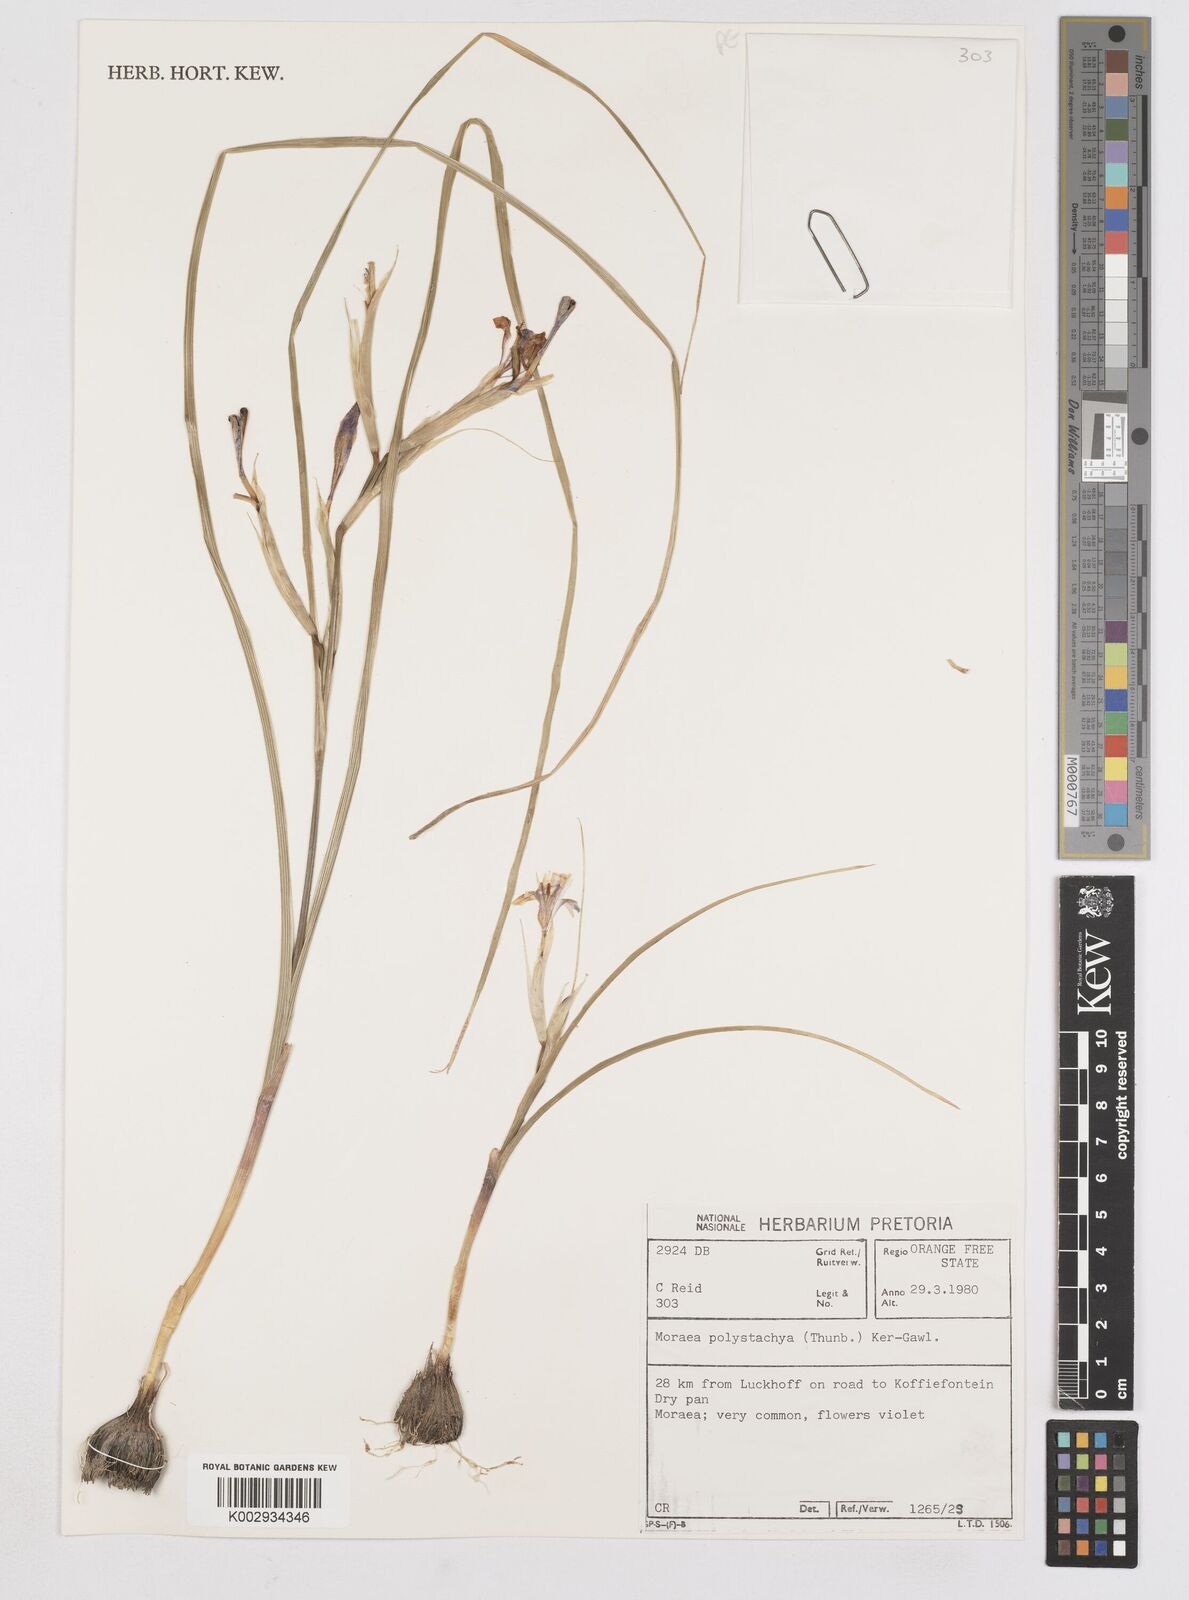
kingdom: Plantae
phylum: Tracheophyta
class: Liliopsida
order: Asparagales
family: Iridaceae
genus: Moraea
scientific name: Moraea polystachya
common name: Blue-tulip
